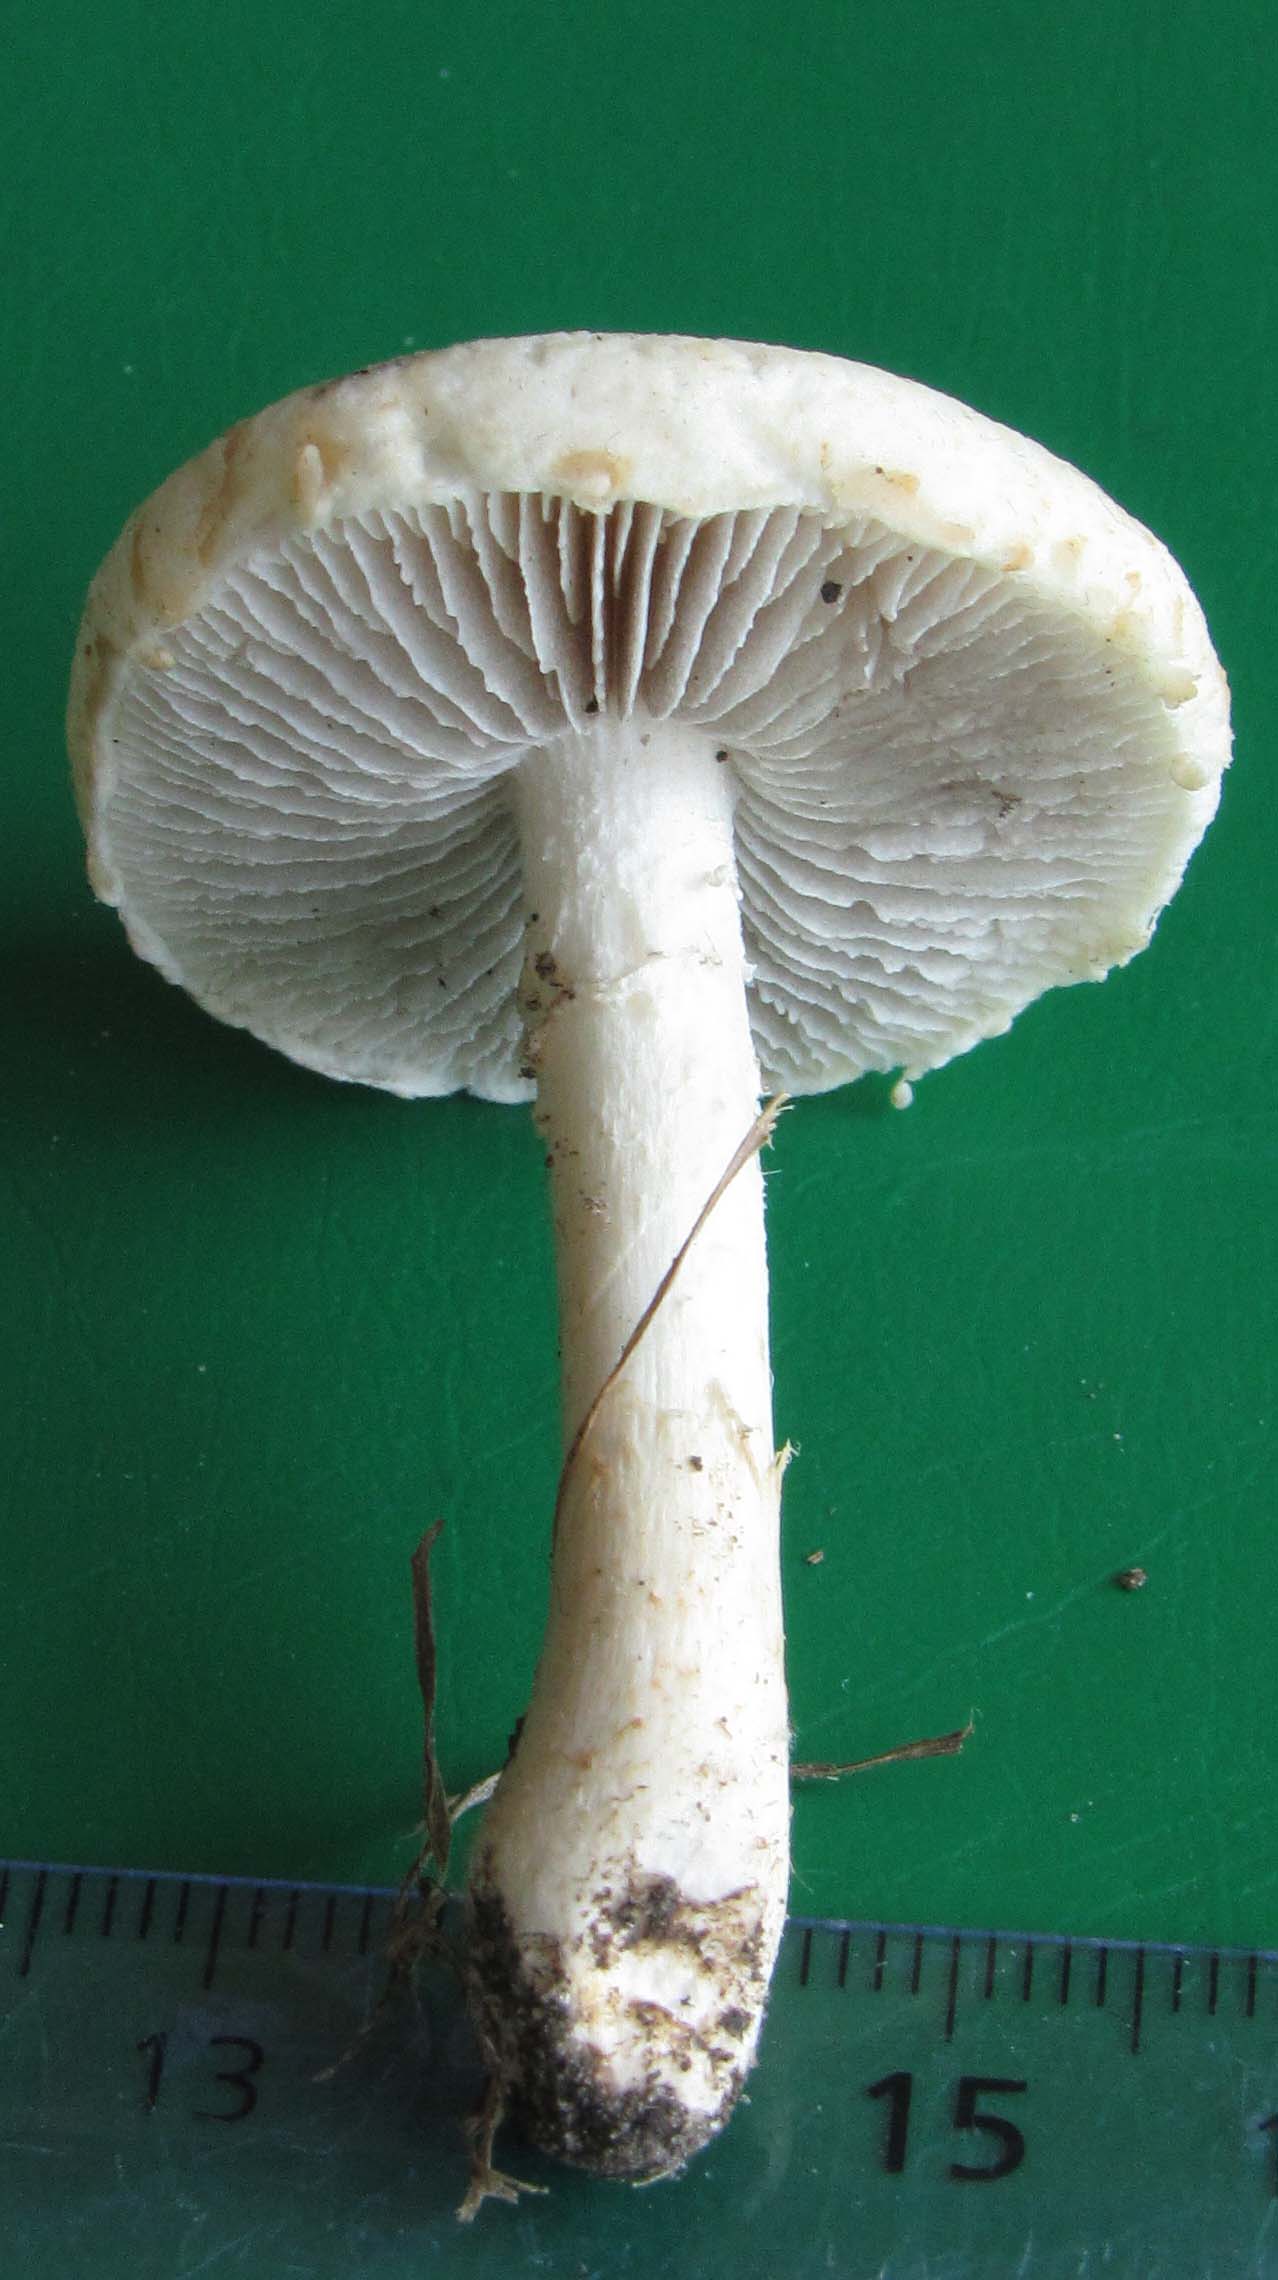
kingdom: Fungi
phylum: Basidiomycota
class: Agaricomycetes
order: Agaricales
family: Strophariaceae
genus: Agrocybe
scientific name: Agrocybe dura
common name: fastkødet agerhat
